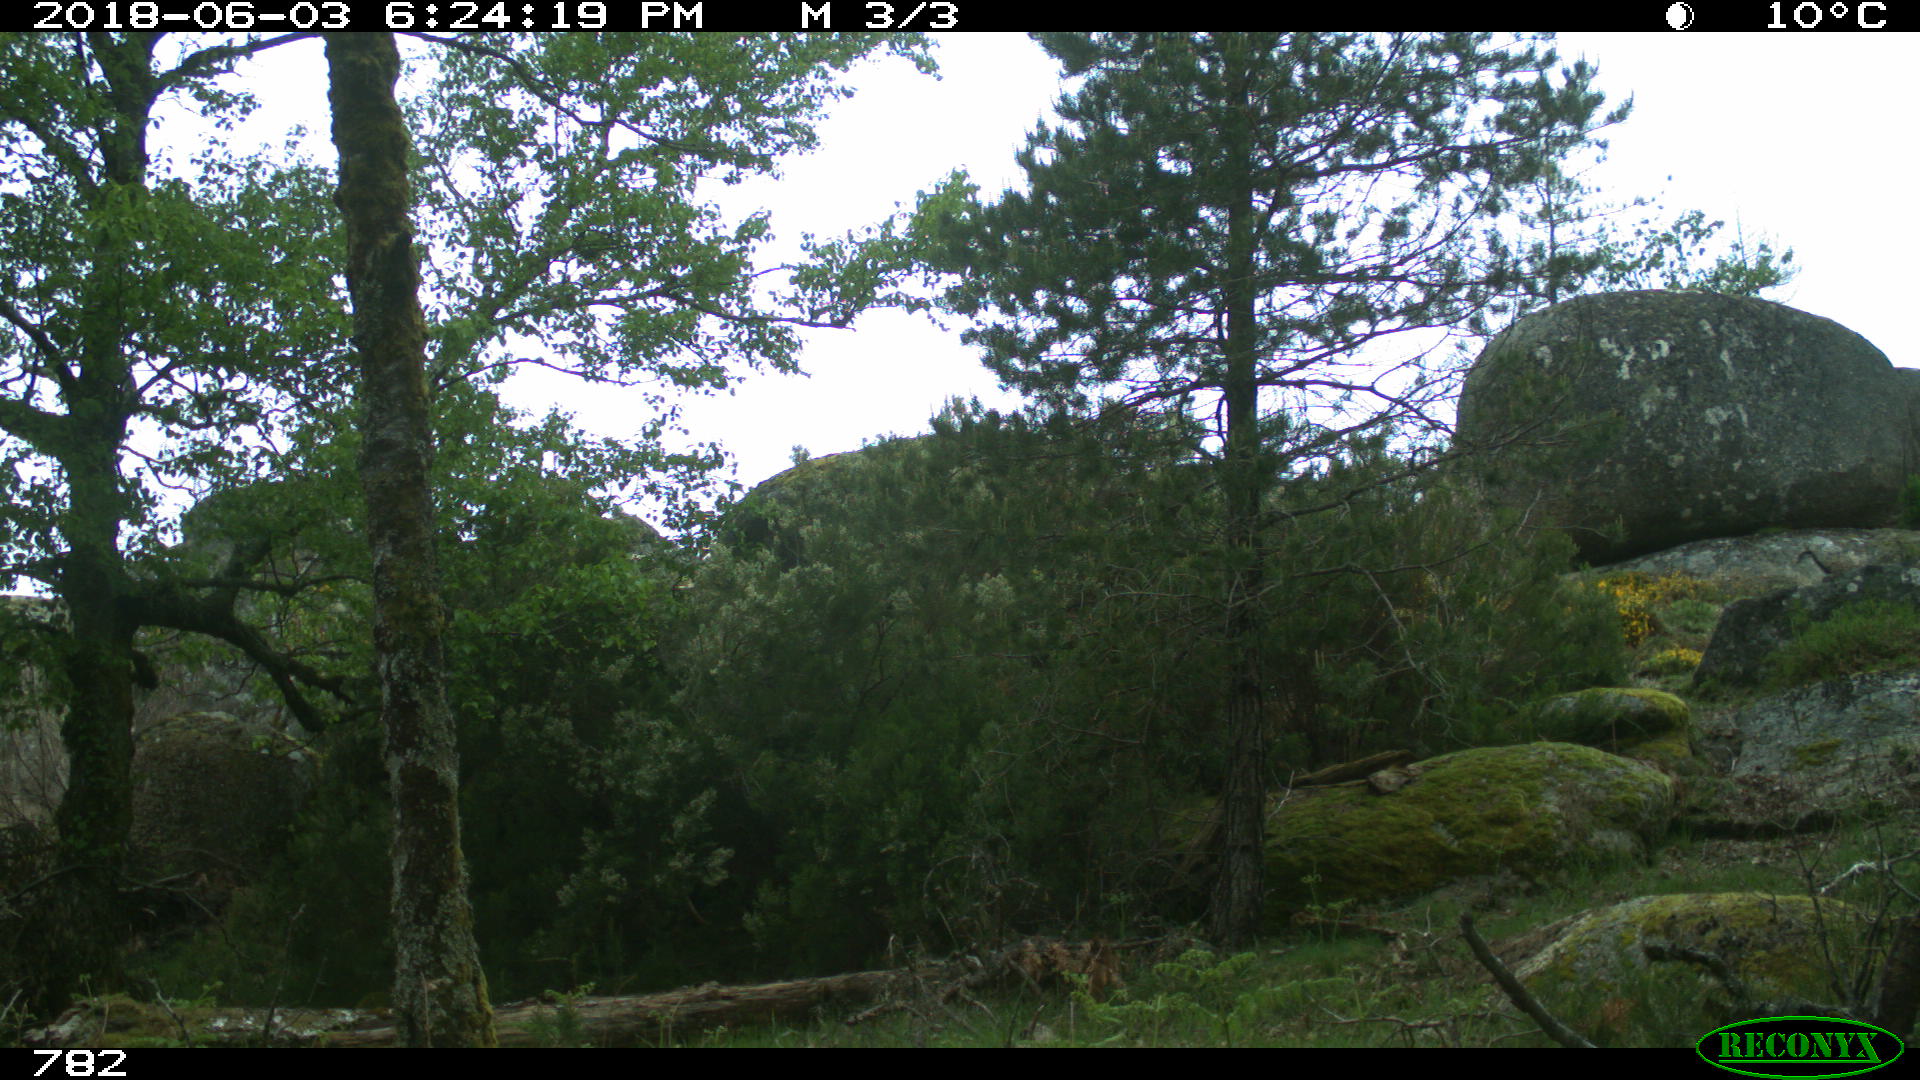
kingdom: Animalia
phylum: Chordata
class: Mammalia
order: Perissodactyla
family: Equidae
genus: Equus
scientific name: Equus caballus
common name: Horse
